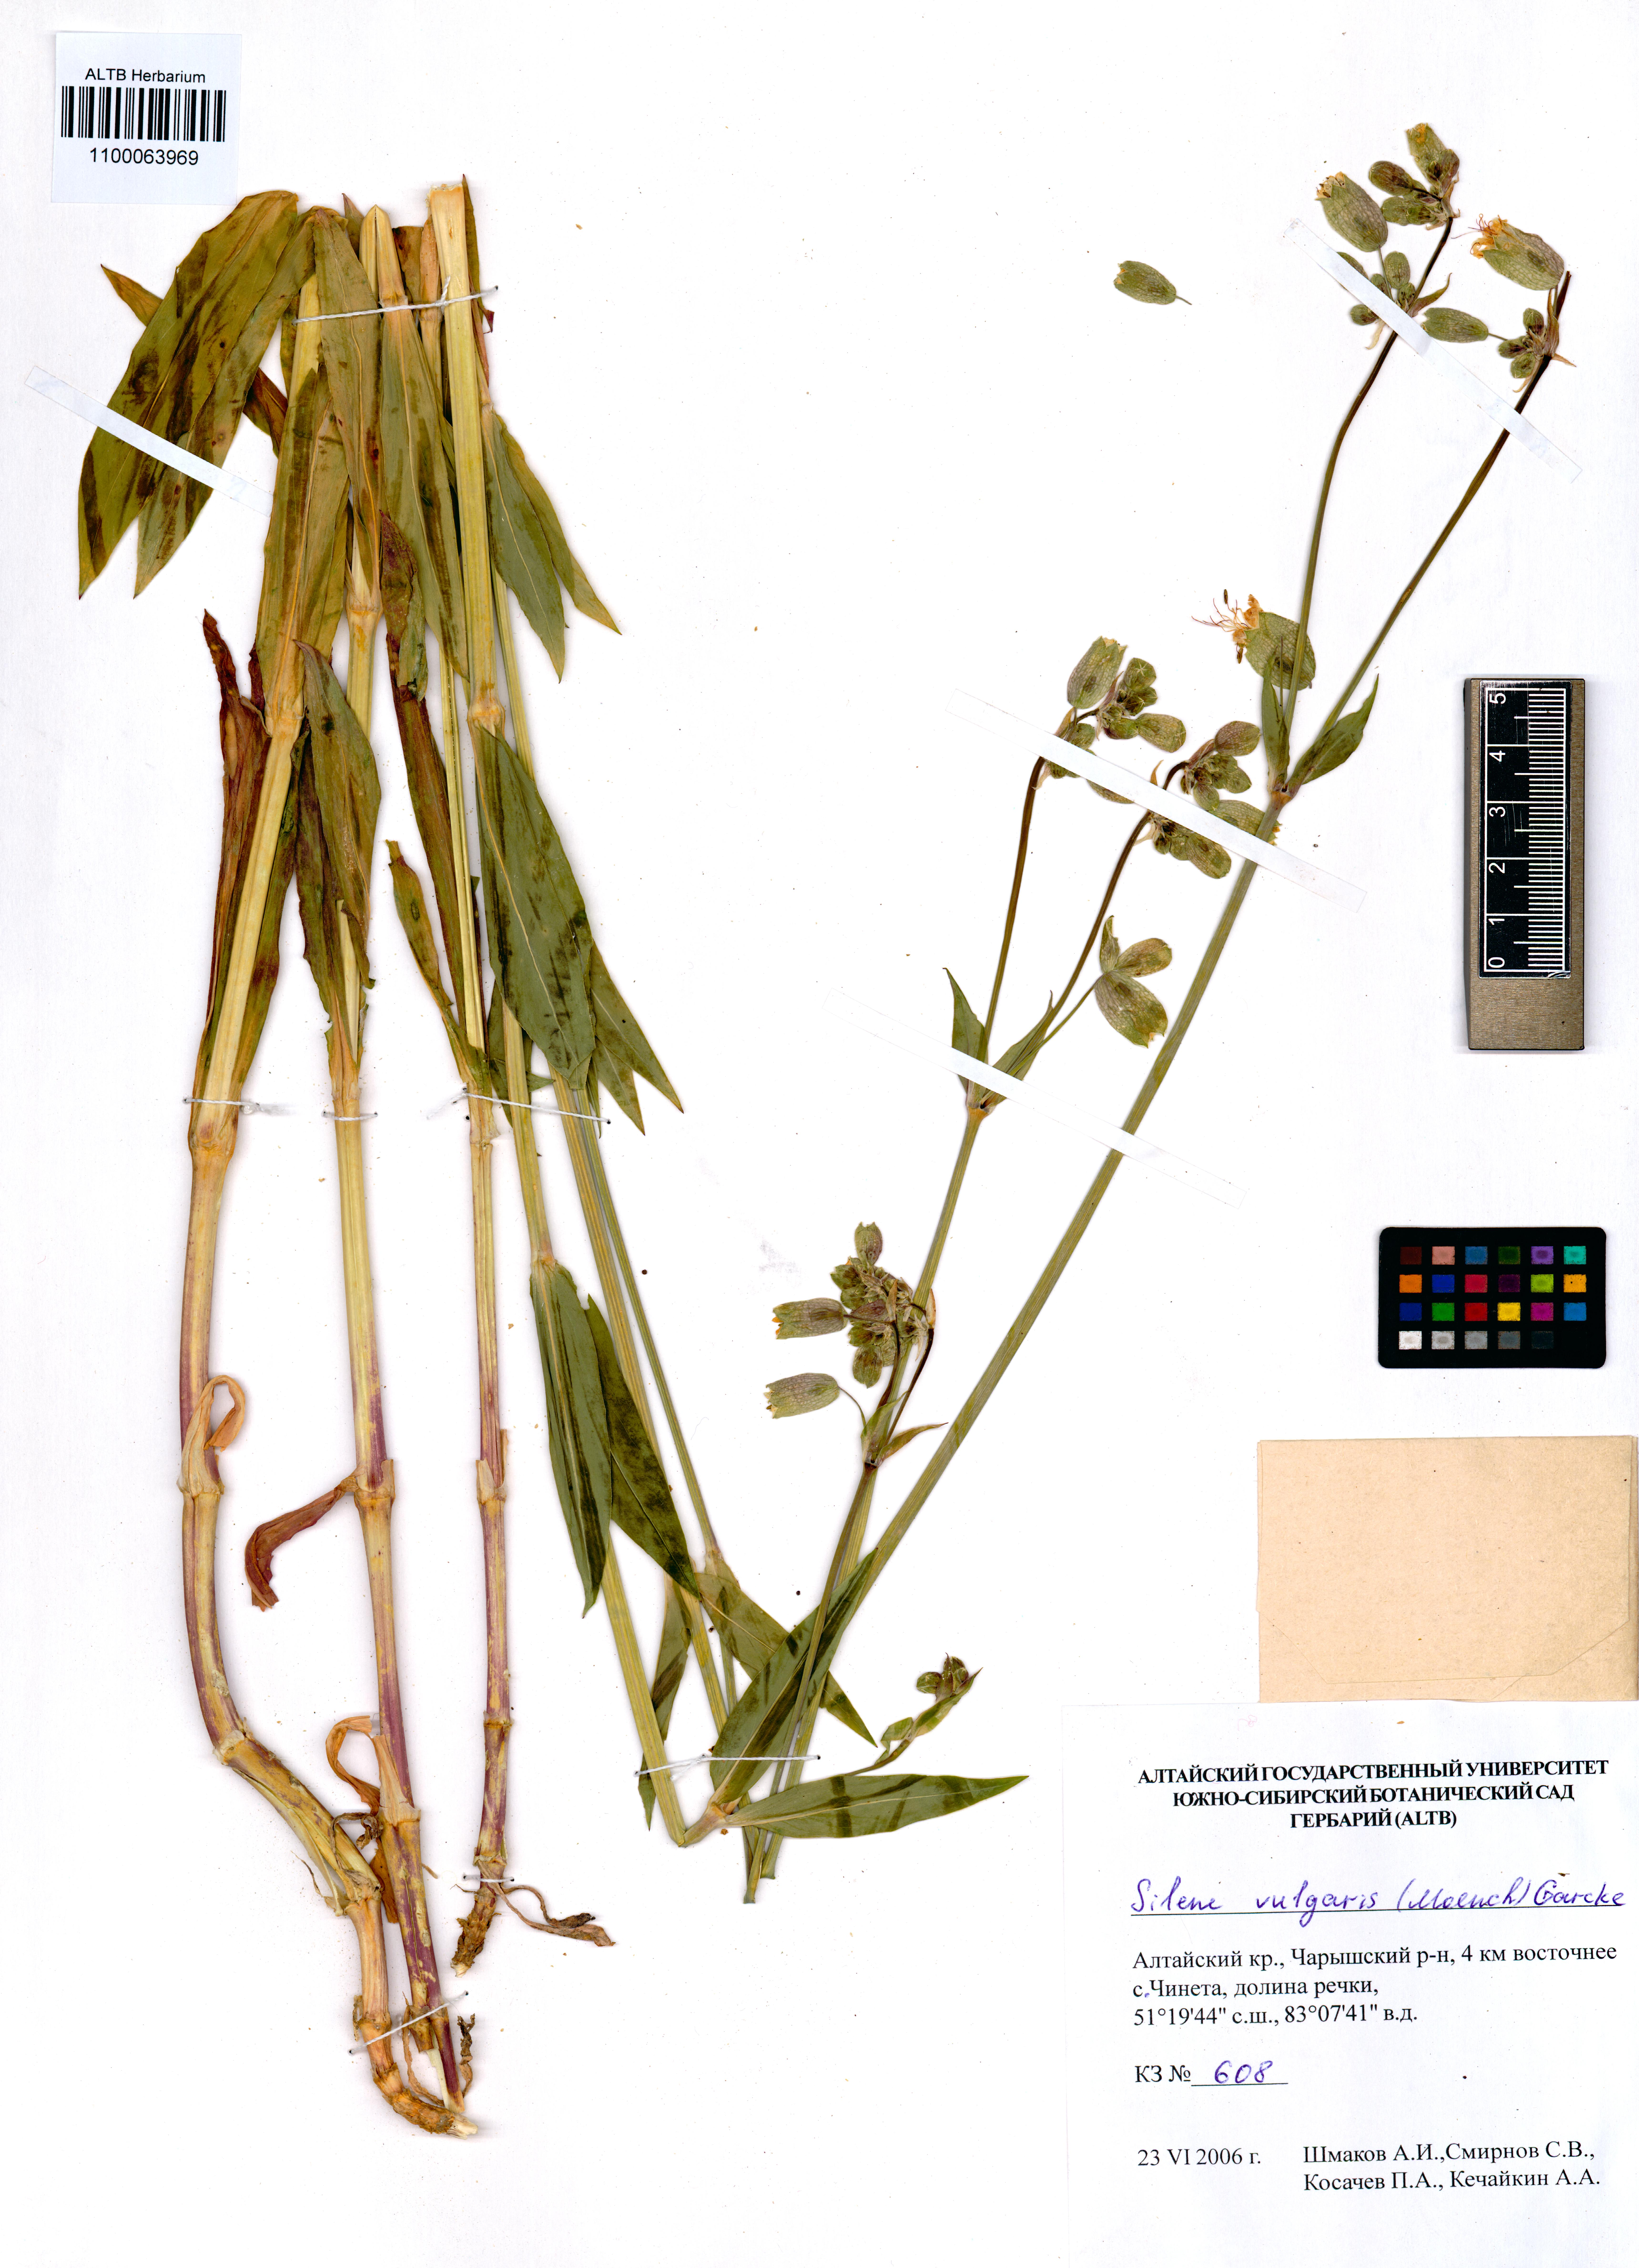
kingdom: Plantae
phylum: Tracheophyta
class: Magnoliopsida
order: Caryophyllales
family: Caryophyllaceae
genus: Silene
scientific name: Silene vulgaris
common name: Bladder campion
